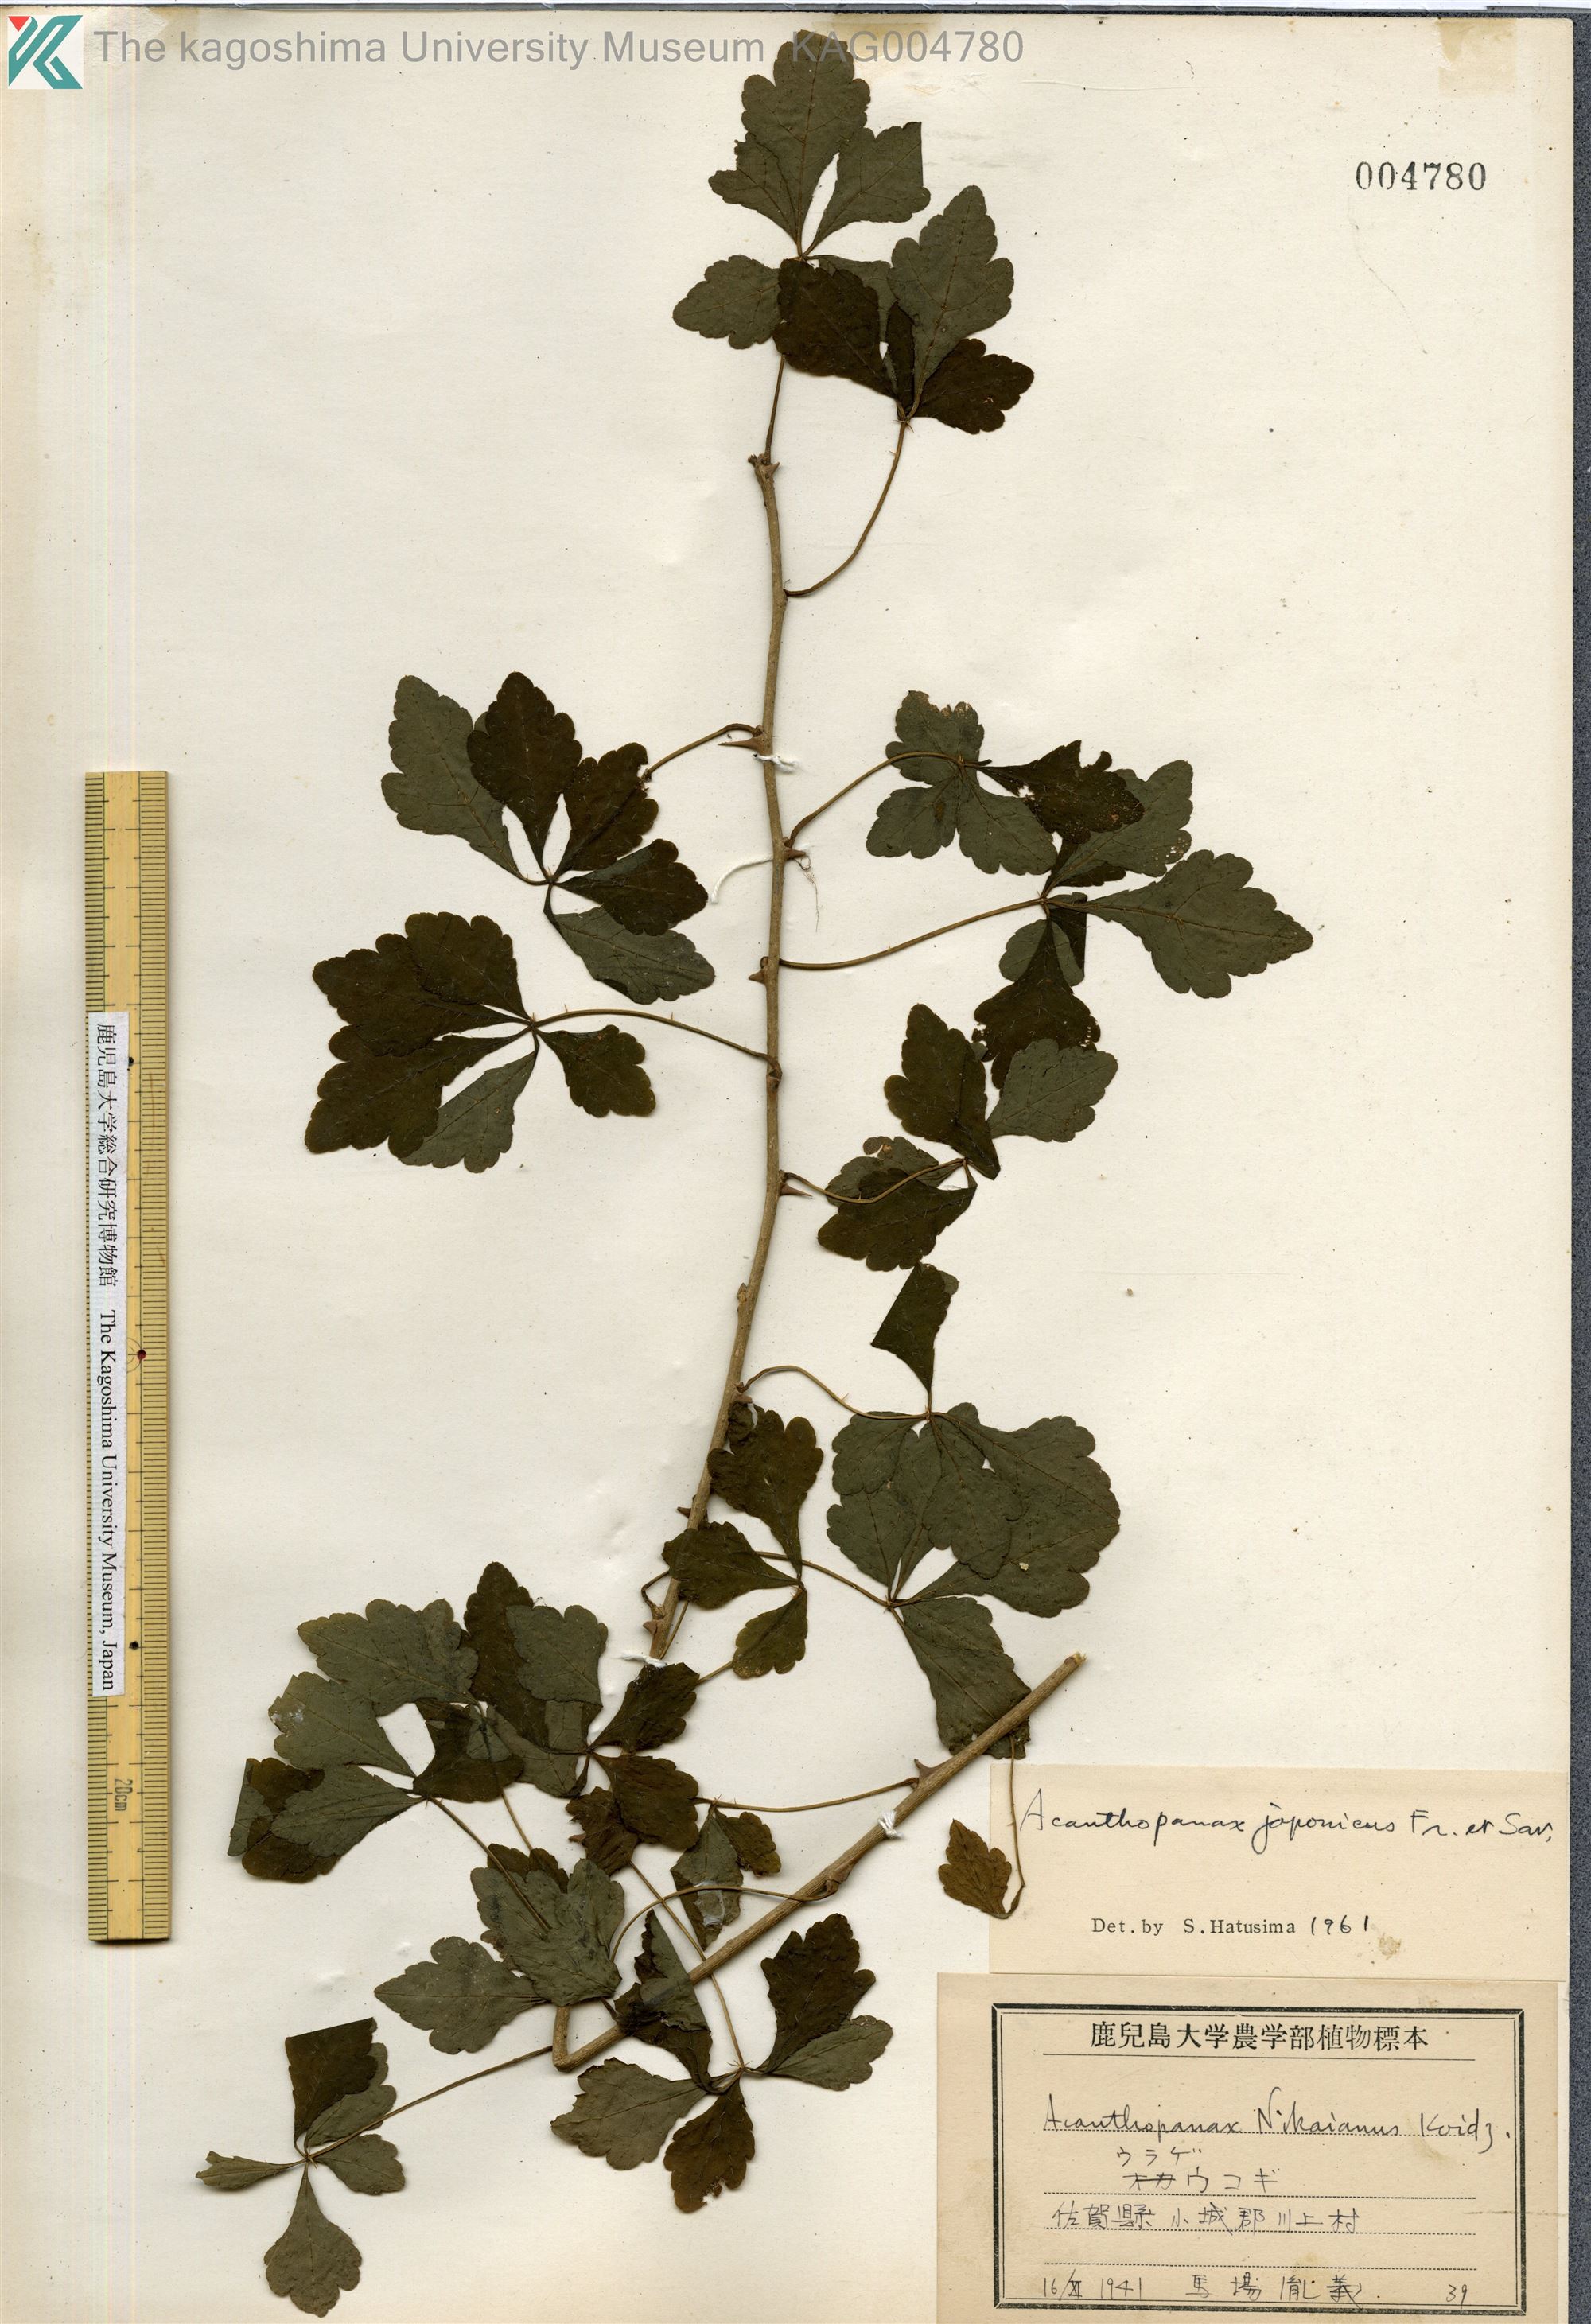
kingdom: Plantae
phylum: Tracheophyta
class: Magnoliopsida
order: Apiales
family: Araliaceae
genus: Eleutherococcus
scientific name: Eleutherococcus japonicus
